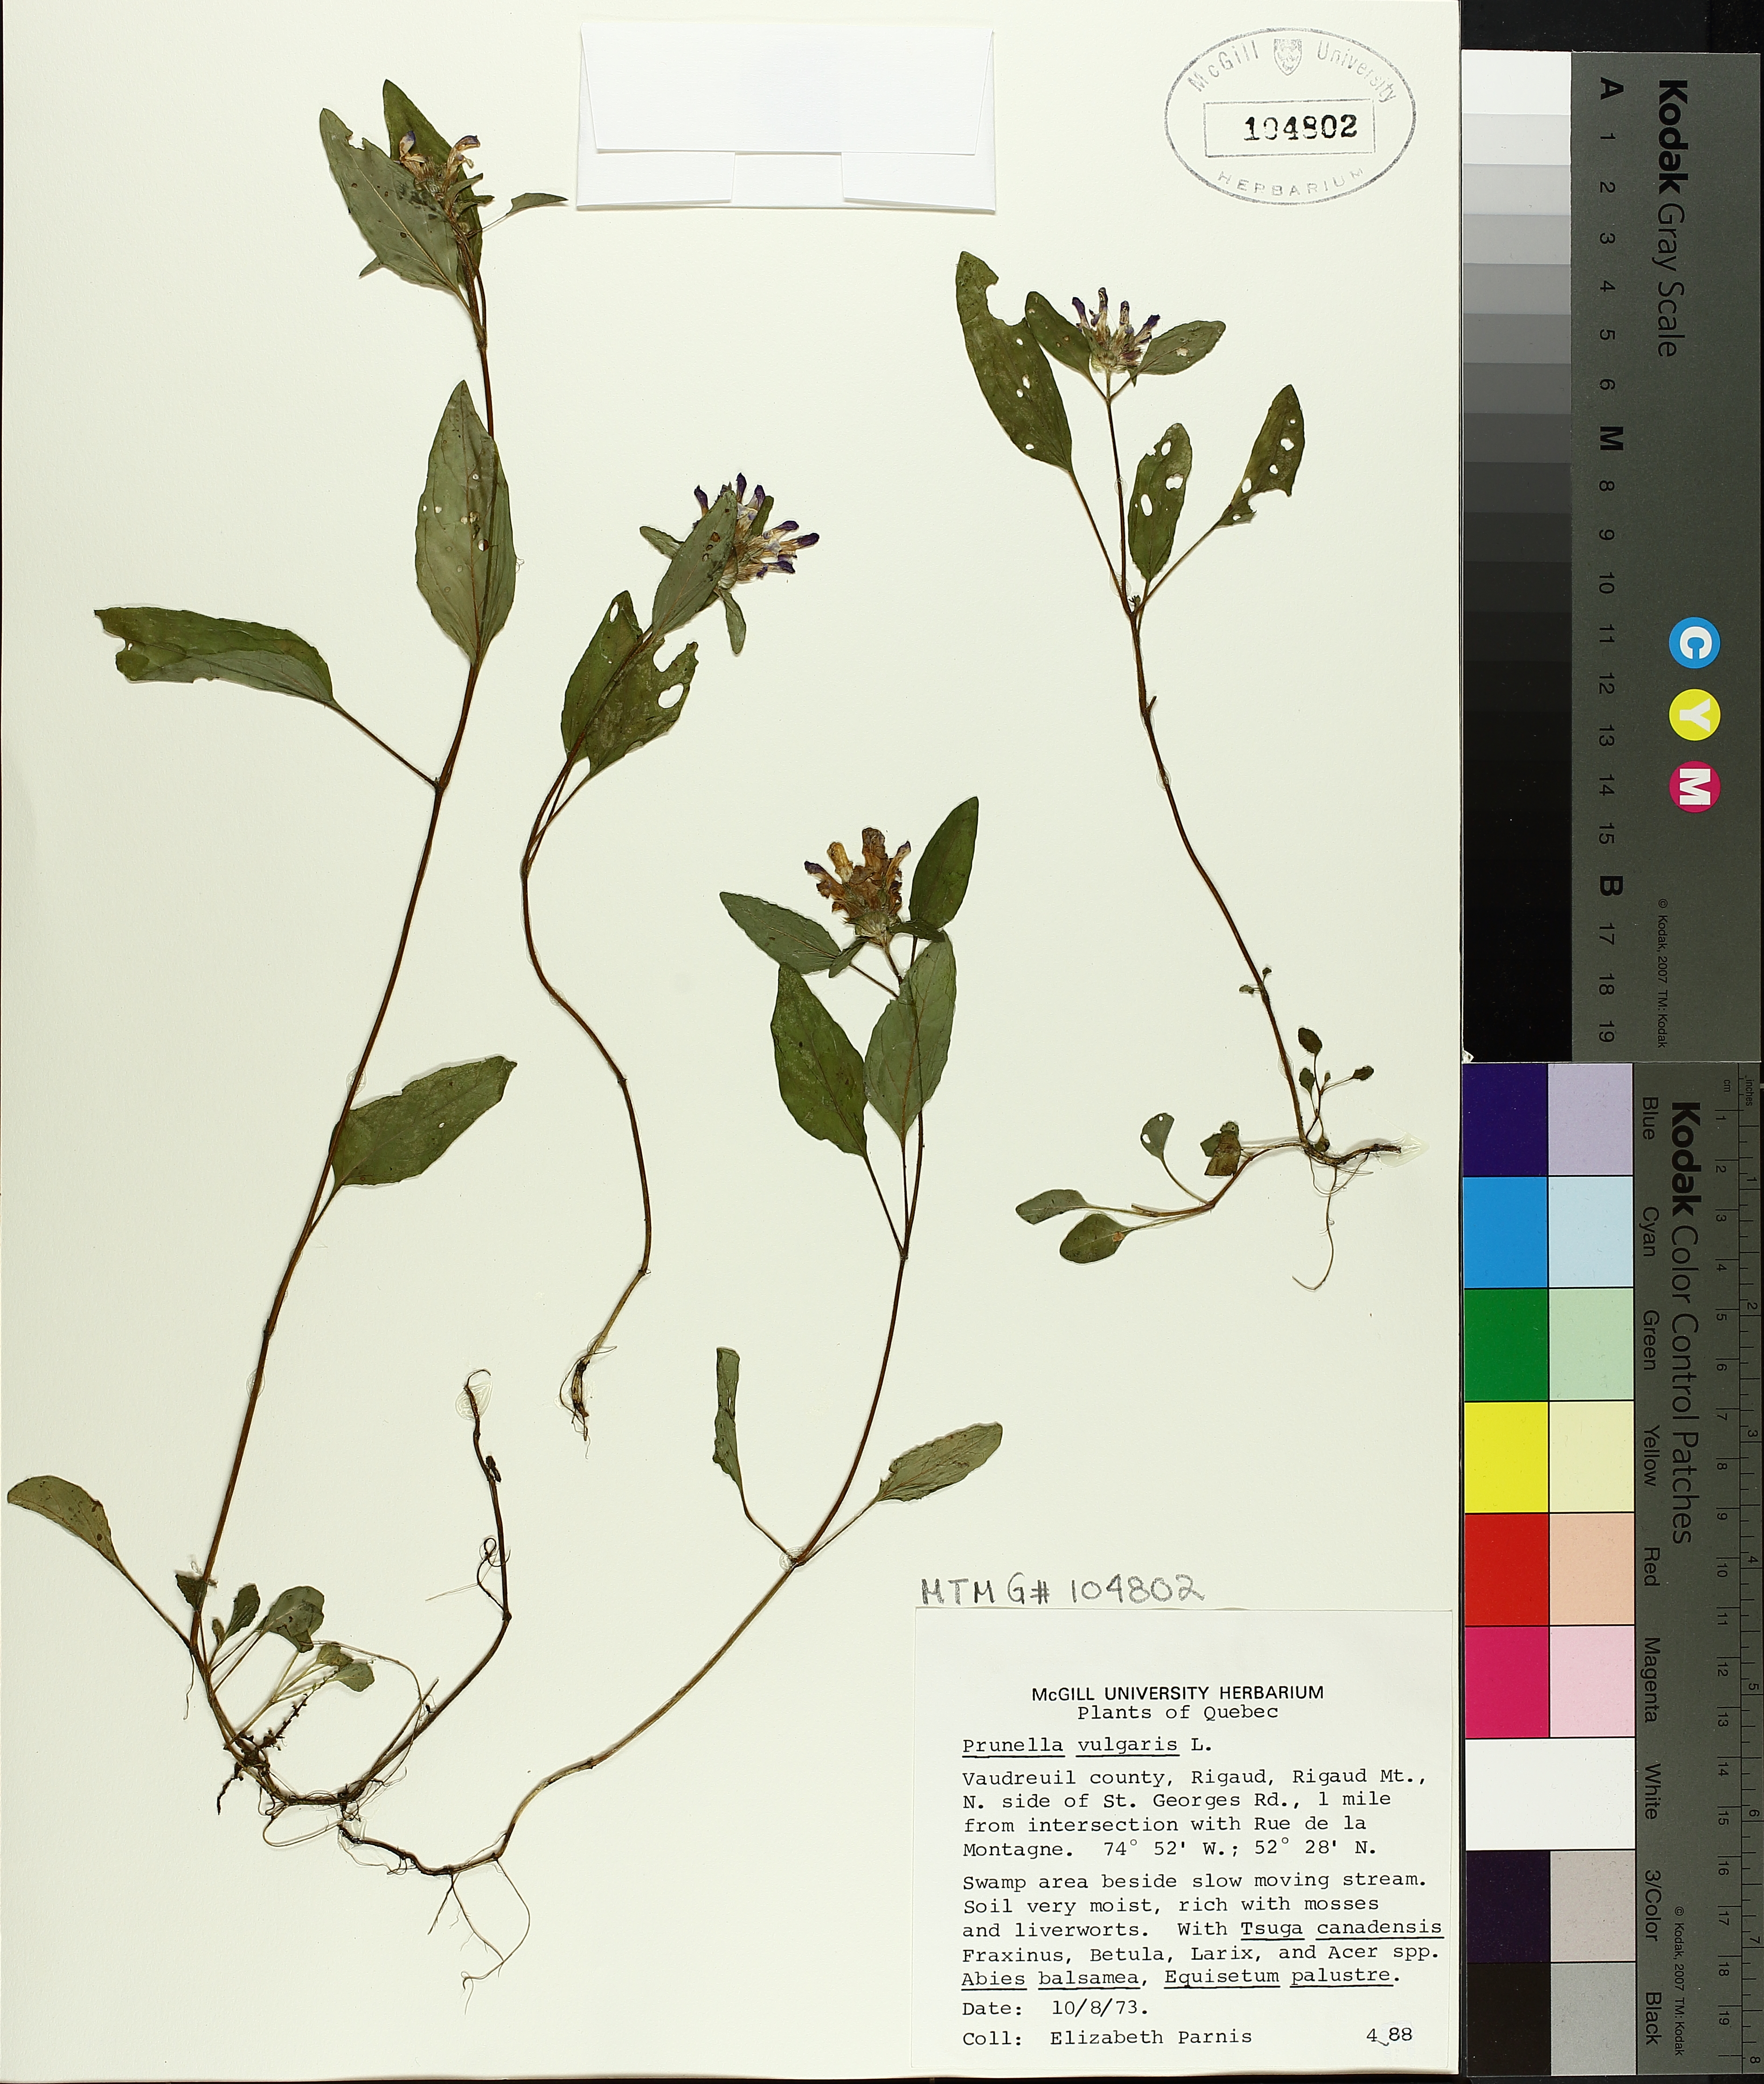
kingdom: Plantae
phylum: Tracheophyta
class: Magnoliopsida
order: Lamiales
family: Lamiaceae
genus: Prunella
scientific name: Prunella vulgaris
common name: Heal-all
